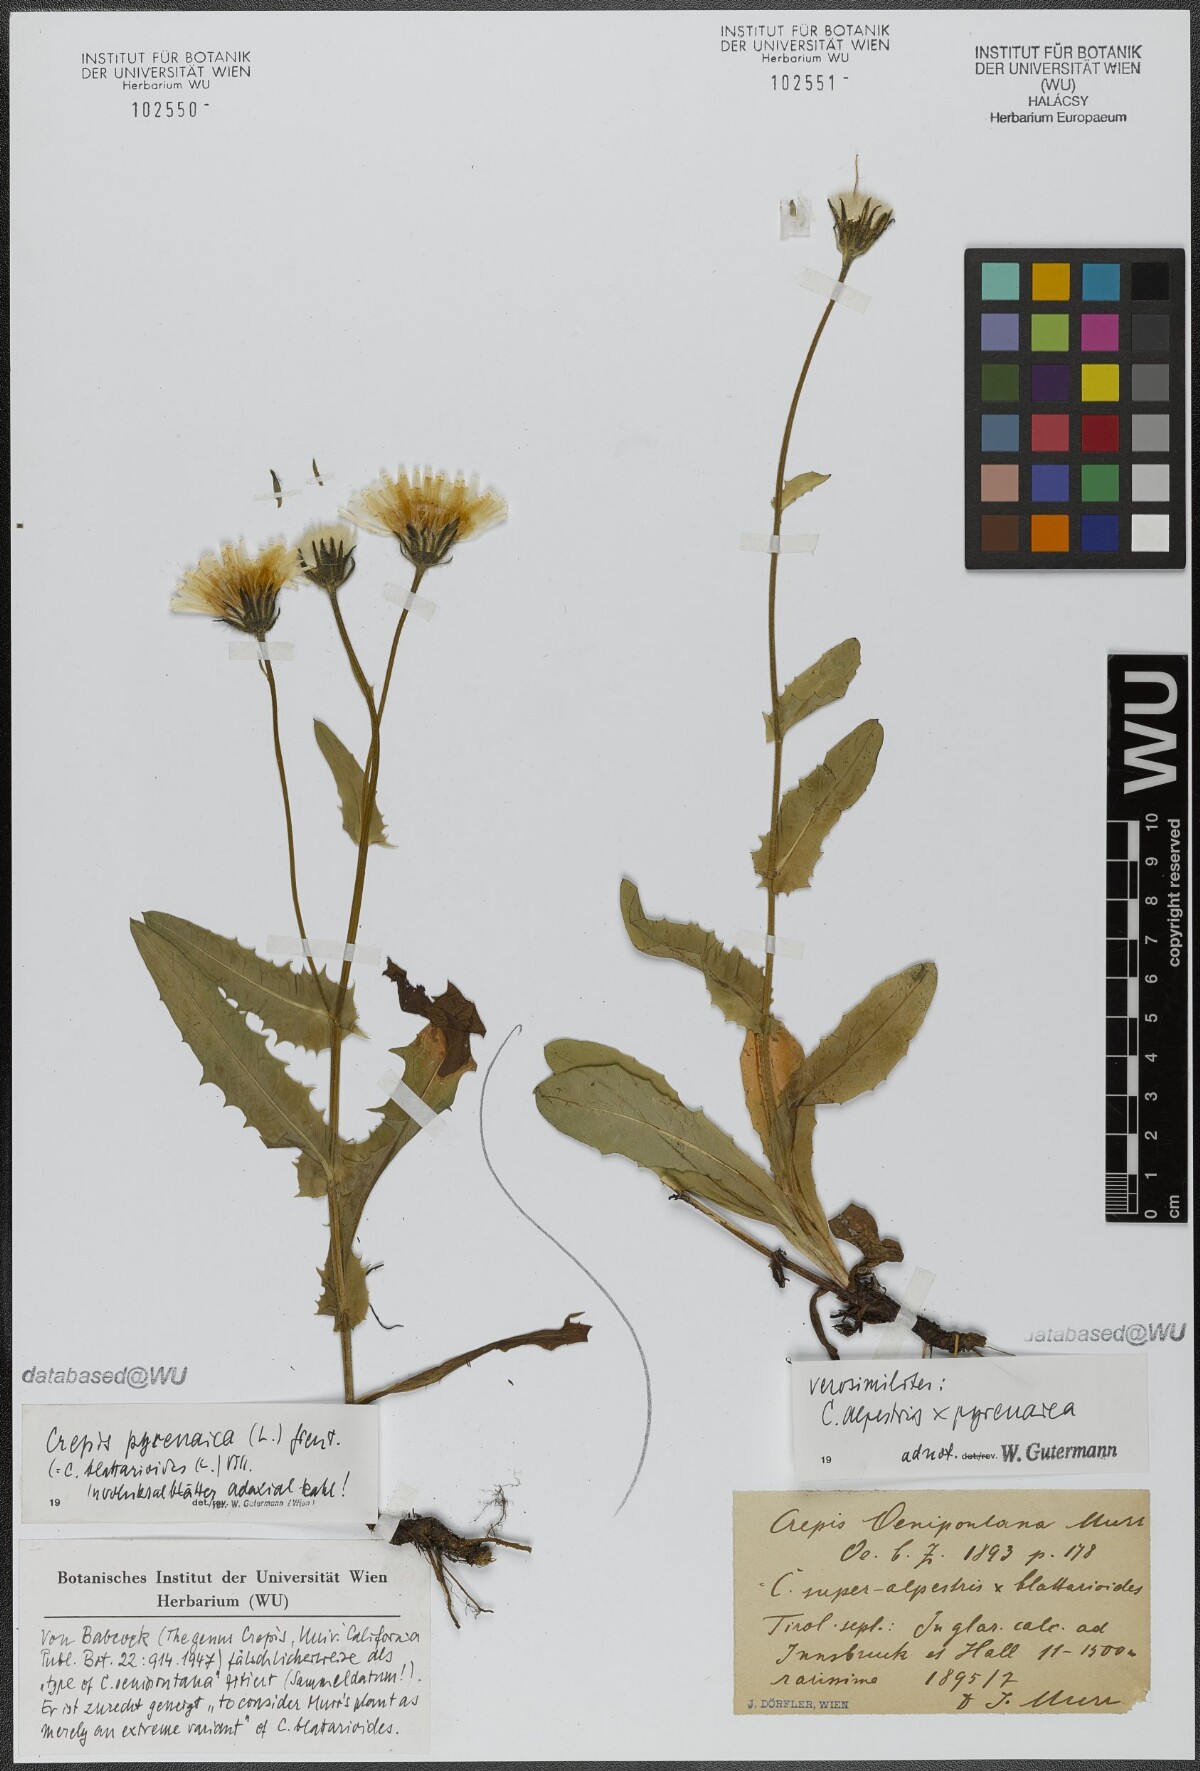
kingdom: Plantae
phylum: Tracheophyta
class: Magnoliopsida
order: Asterales
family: Asteraceae
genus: Crepis
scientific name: Crepis oenipontana
